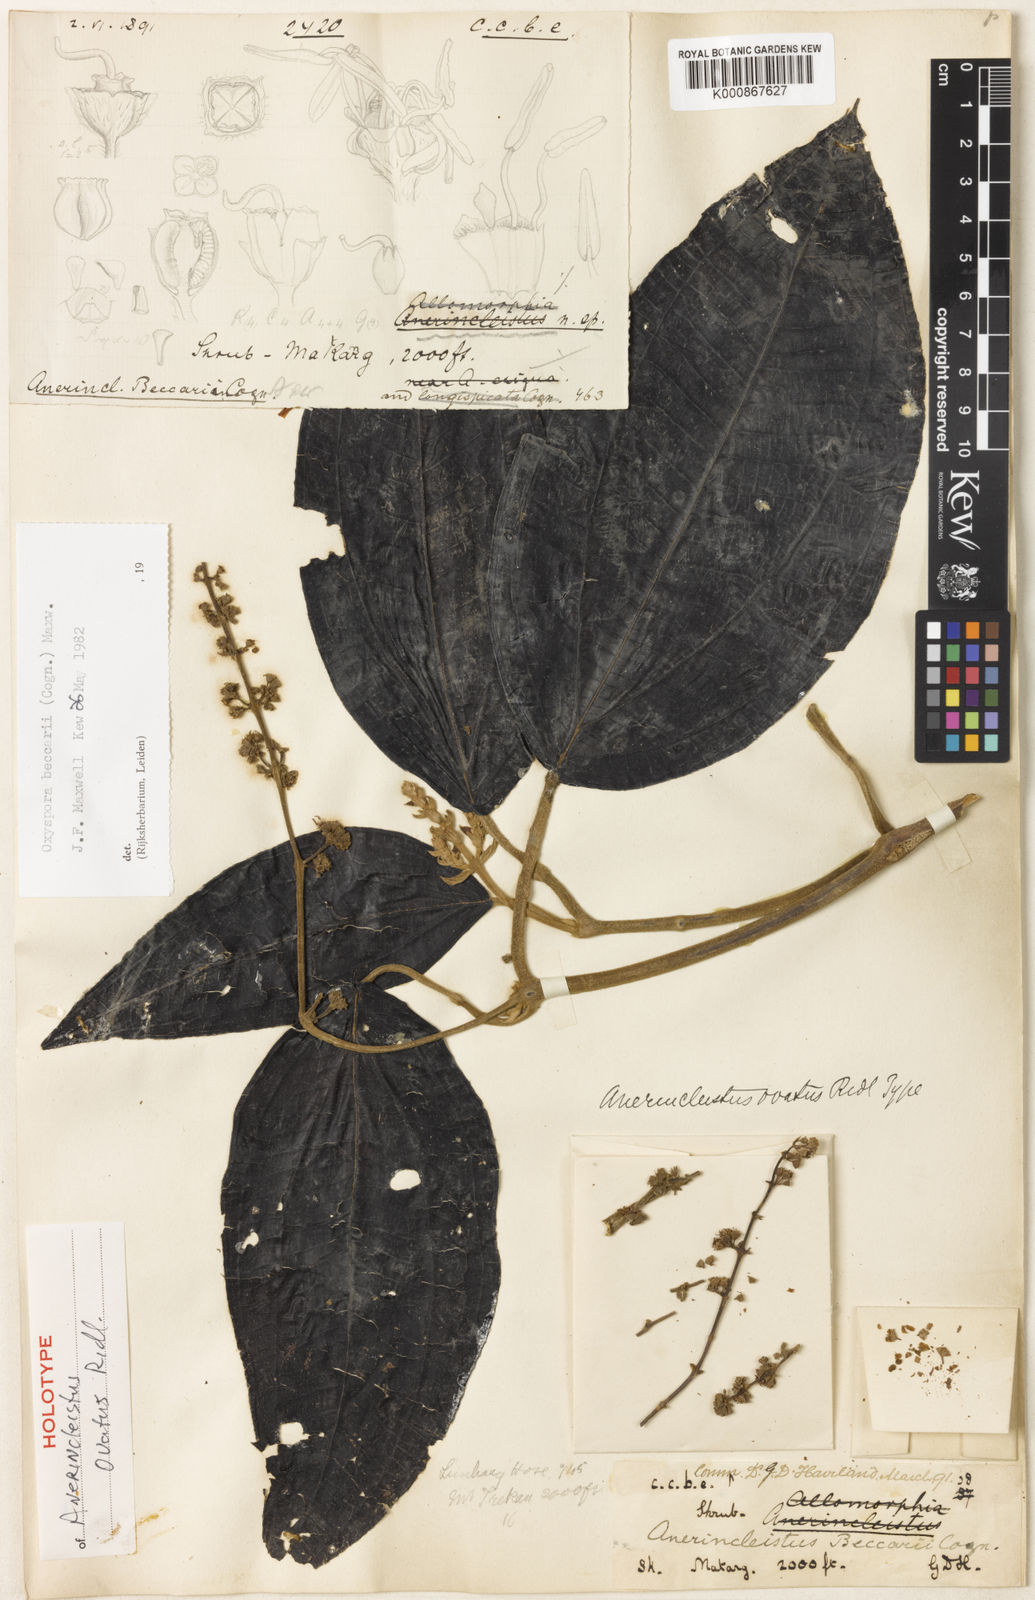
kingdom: Plantae
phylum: Tracheophyta
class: Magnoliopsida
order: Myrtales
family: Melastomataceae
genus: Oxyspora
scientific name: Oxyspora beccarii
